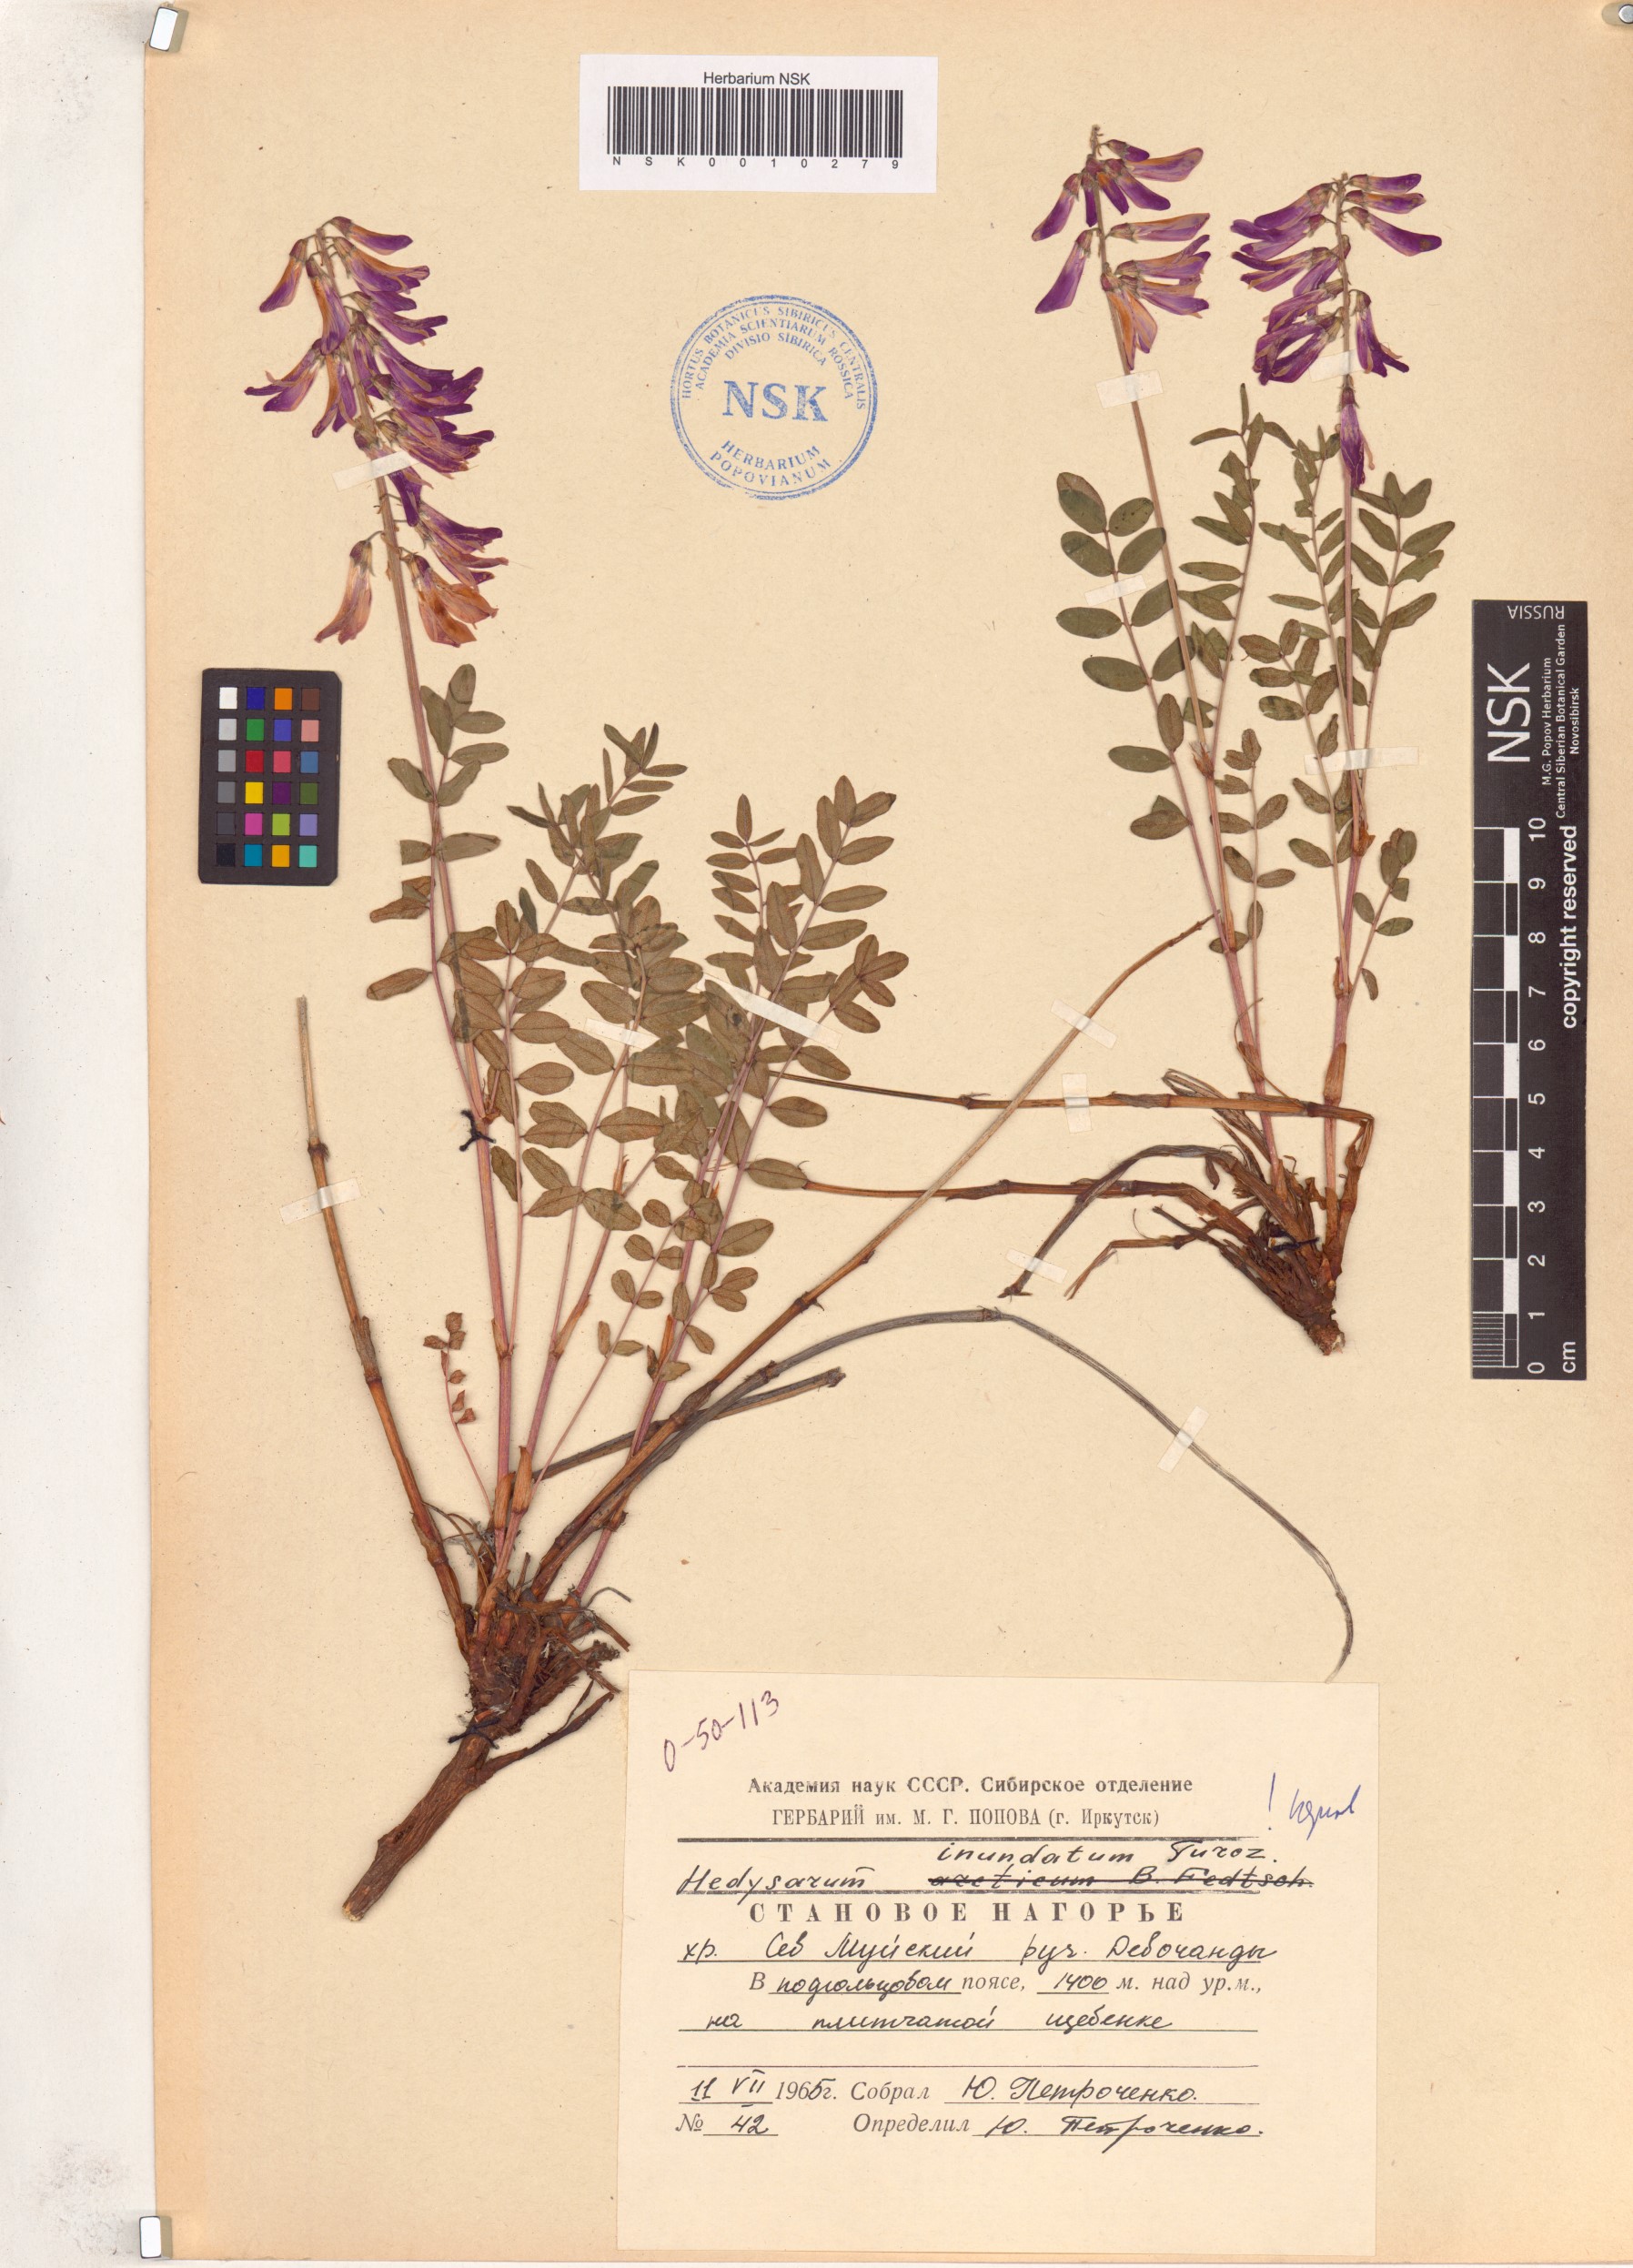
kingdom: Plantae
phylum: Tracheophyta
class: Magnoliopsida
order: Fabales
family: Fabaceae
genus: Hedysarum
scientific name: Hedysarum inundatum
